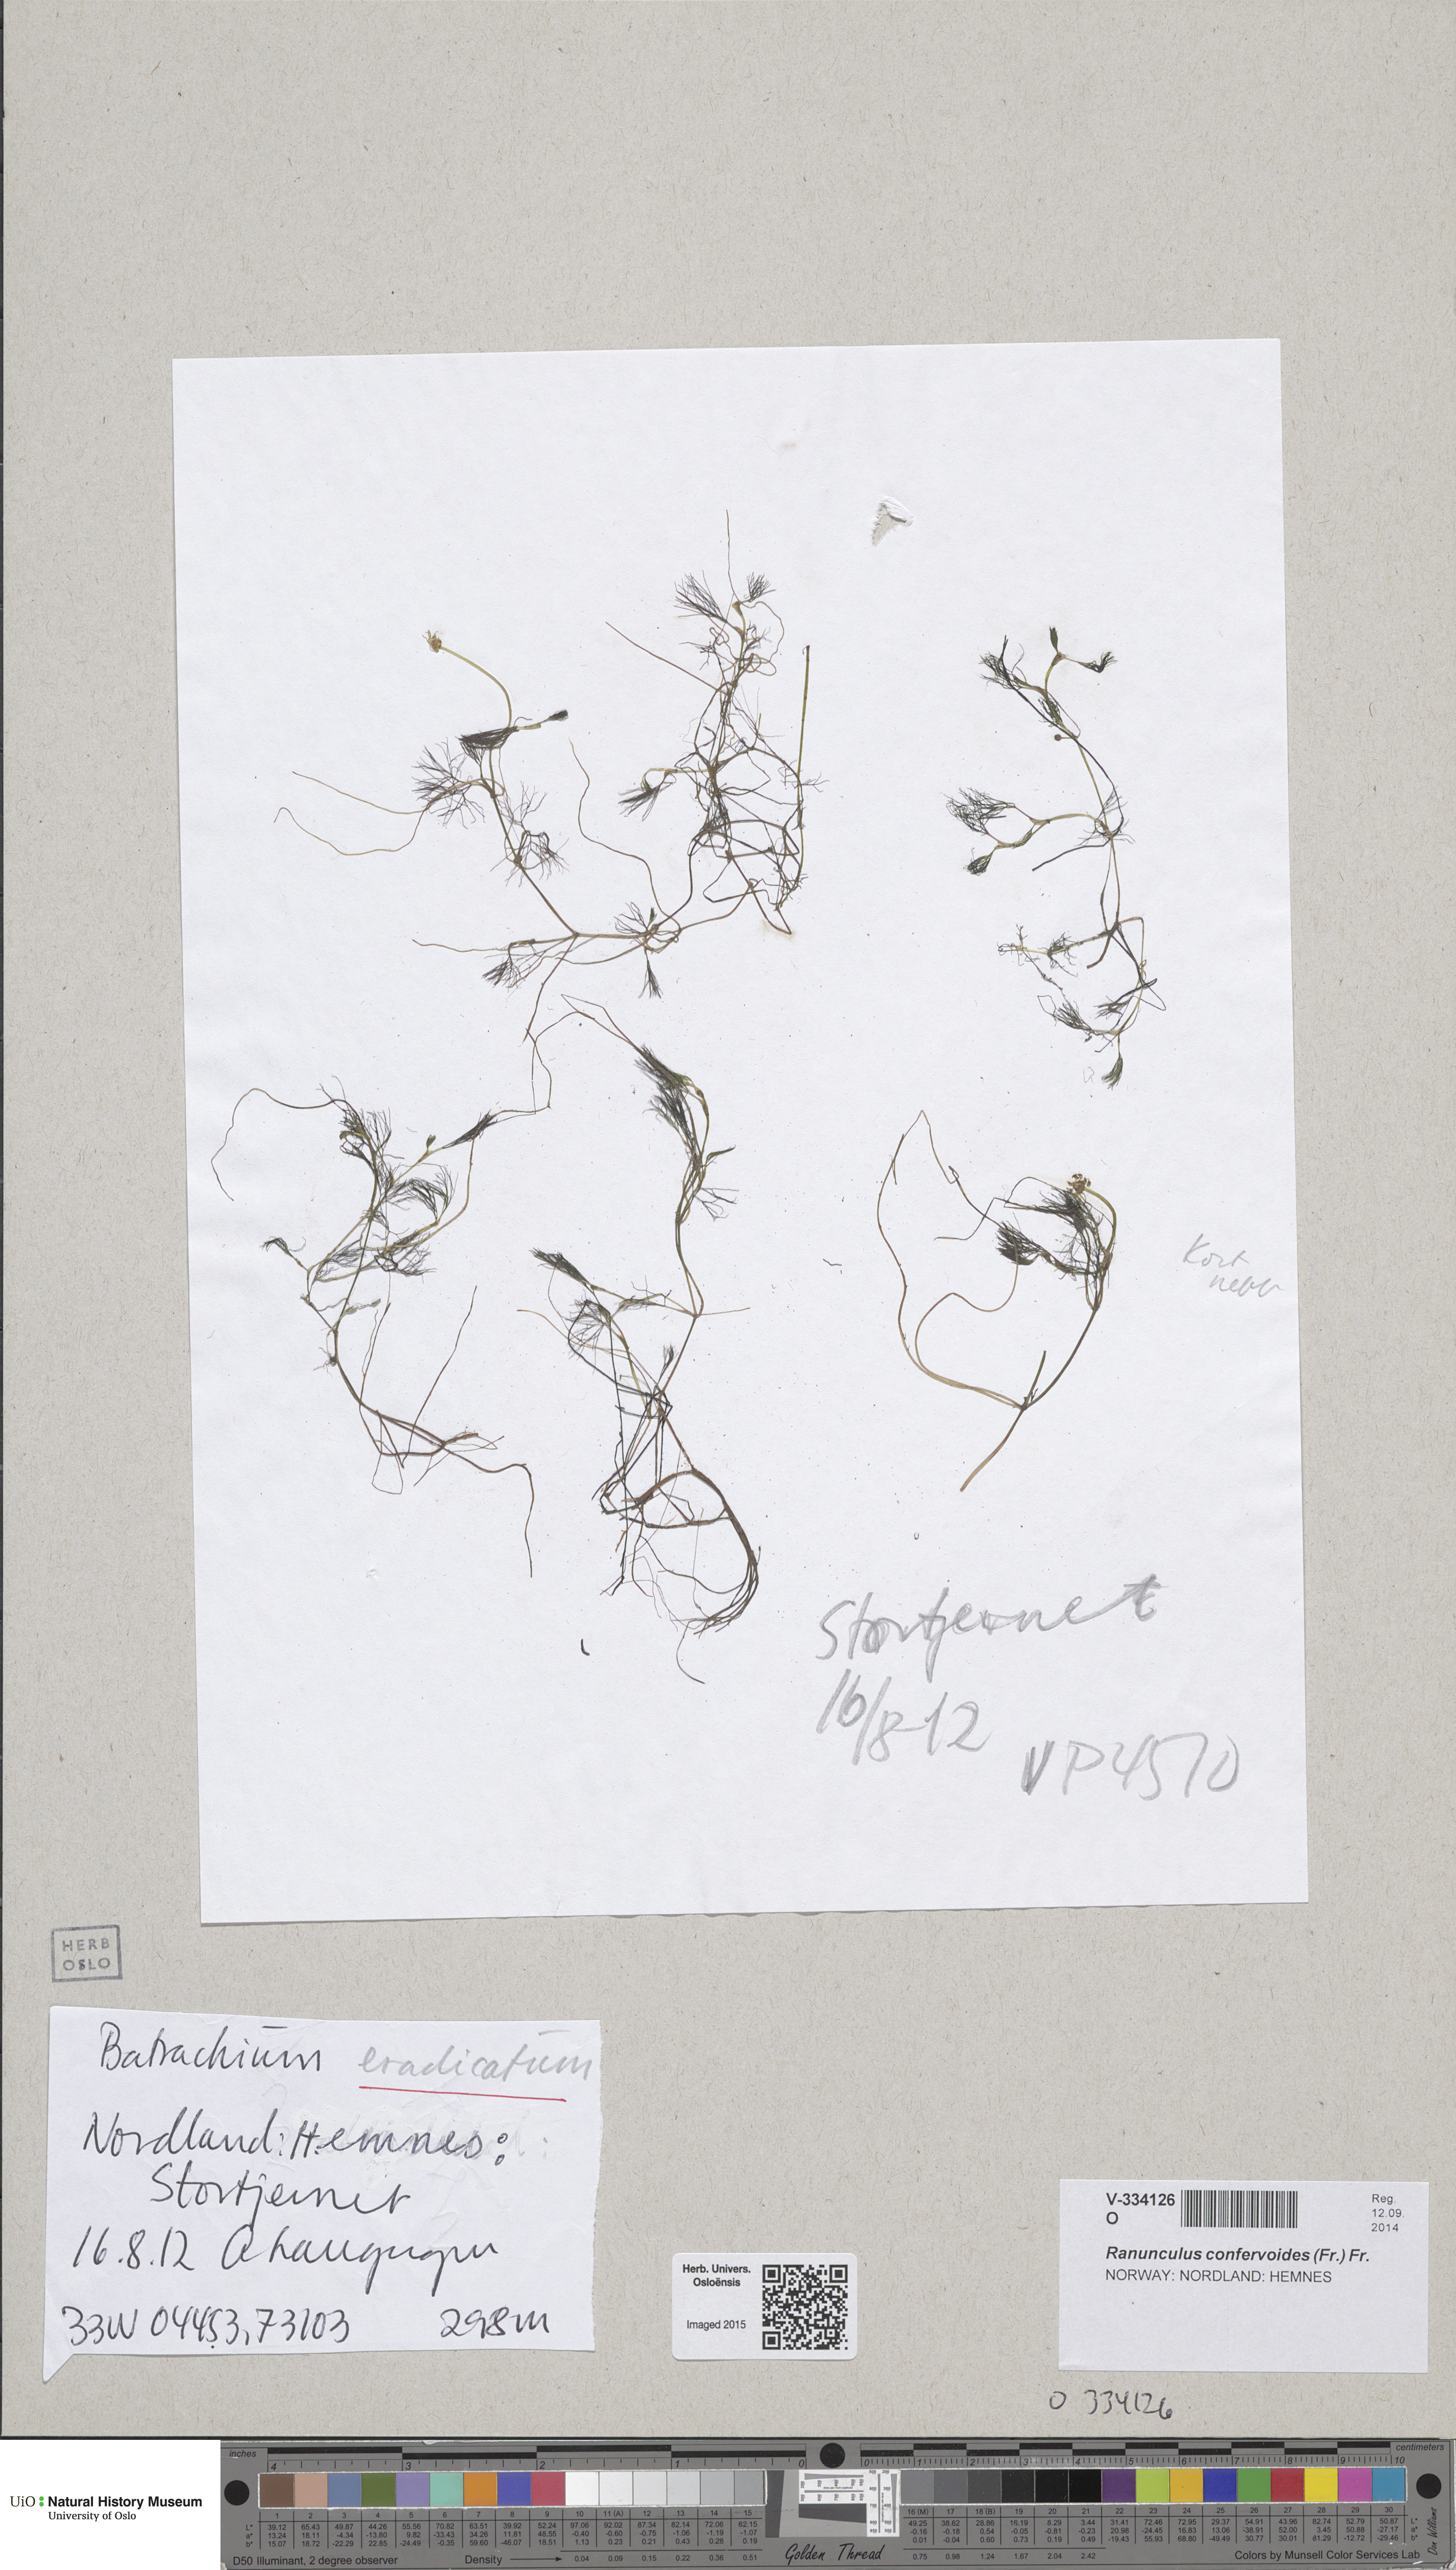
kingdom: Plantae
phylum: Tracheophyta
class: Magnoliopsida
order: Ranunculales
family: Ranunculaceae
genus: Ranunculus
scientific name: Ranunculus confervoides
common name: Delicate buttercup
